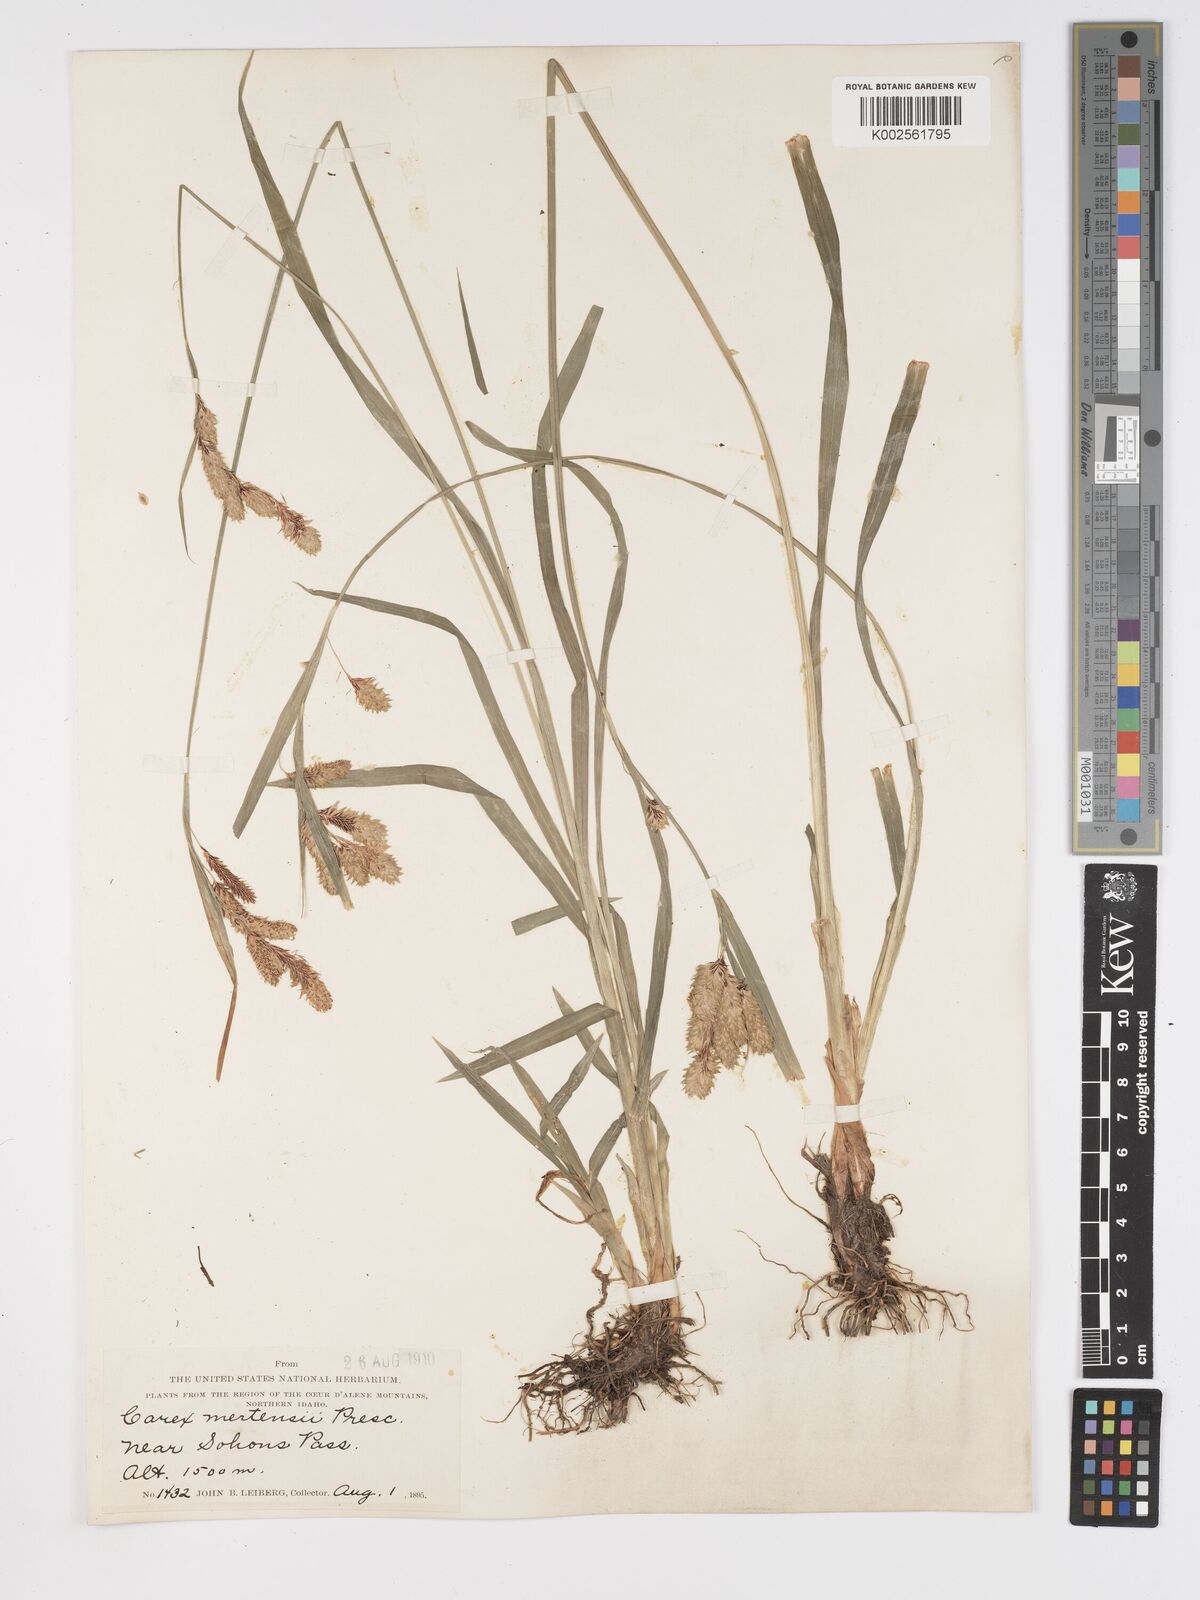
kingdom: Plantae
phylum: Tracheophyta
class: Liliopsida
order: Poales
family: Cyperaceae
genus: Carex
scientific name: Carex mertensii
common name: Mertens' sedge
